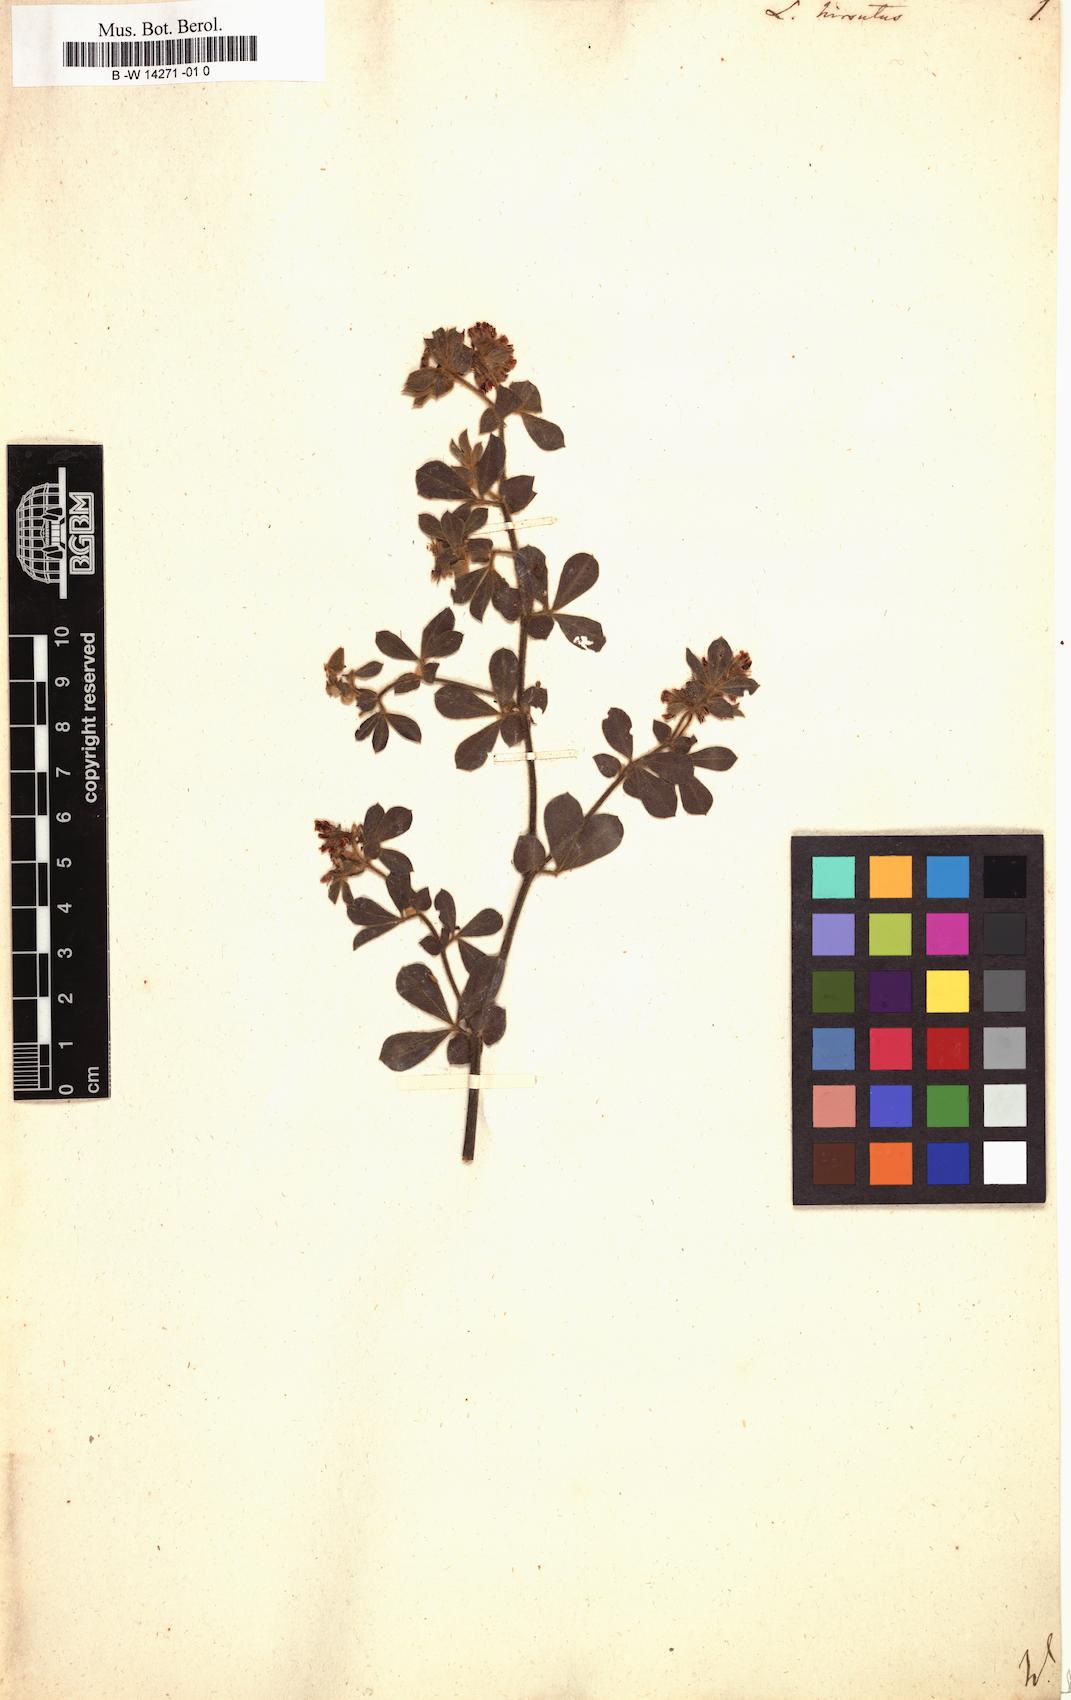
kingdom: Plantae
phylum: Tracheophyta
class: Magnoliopsida
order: Fabales
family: Fabaceae
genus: Lotus
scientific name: Lotus hirsutus
